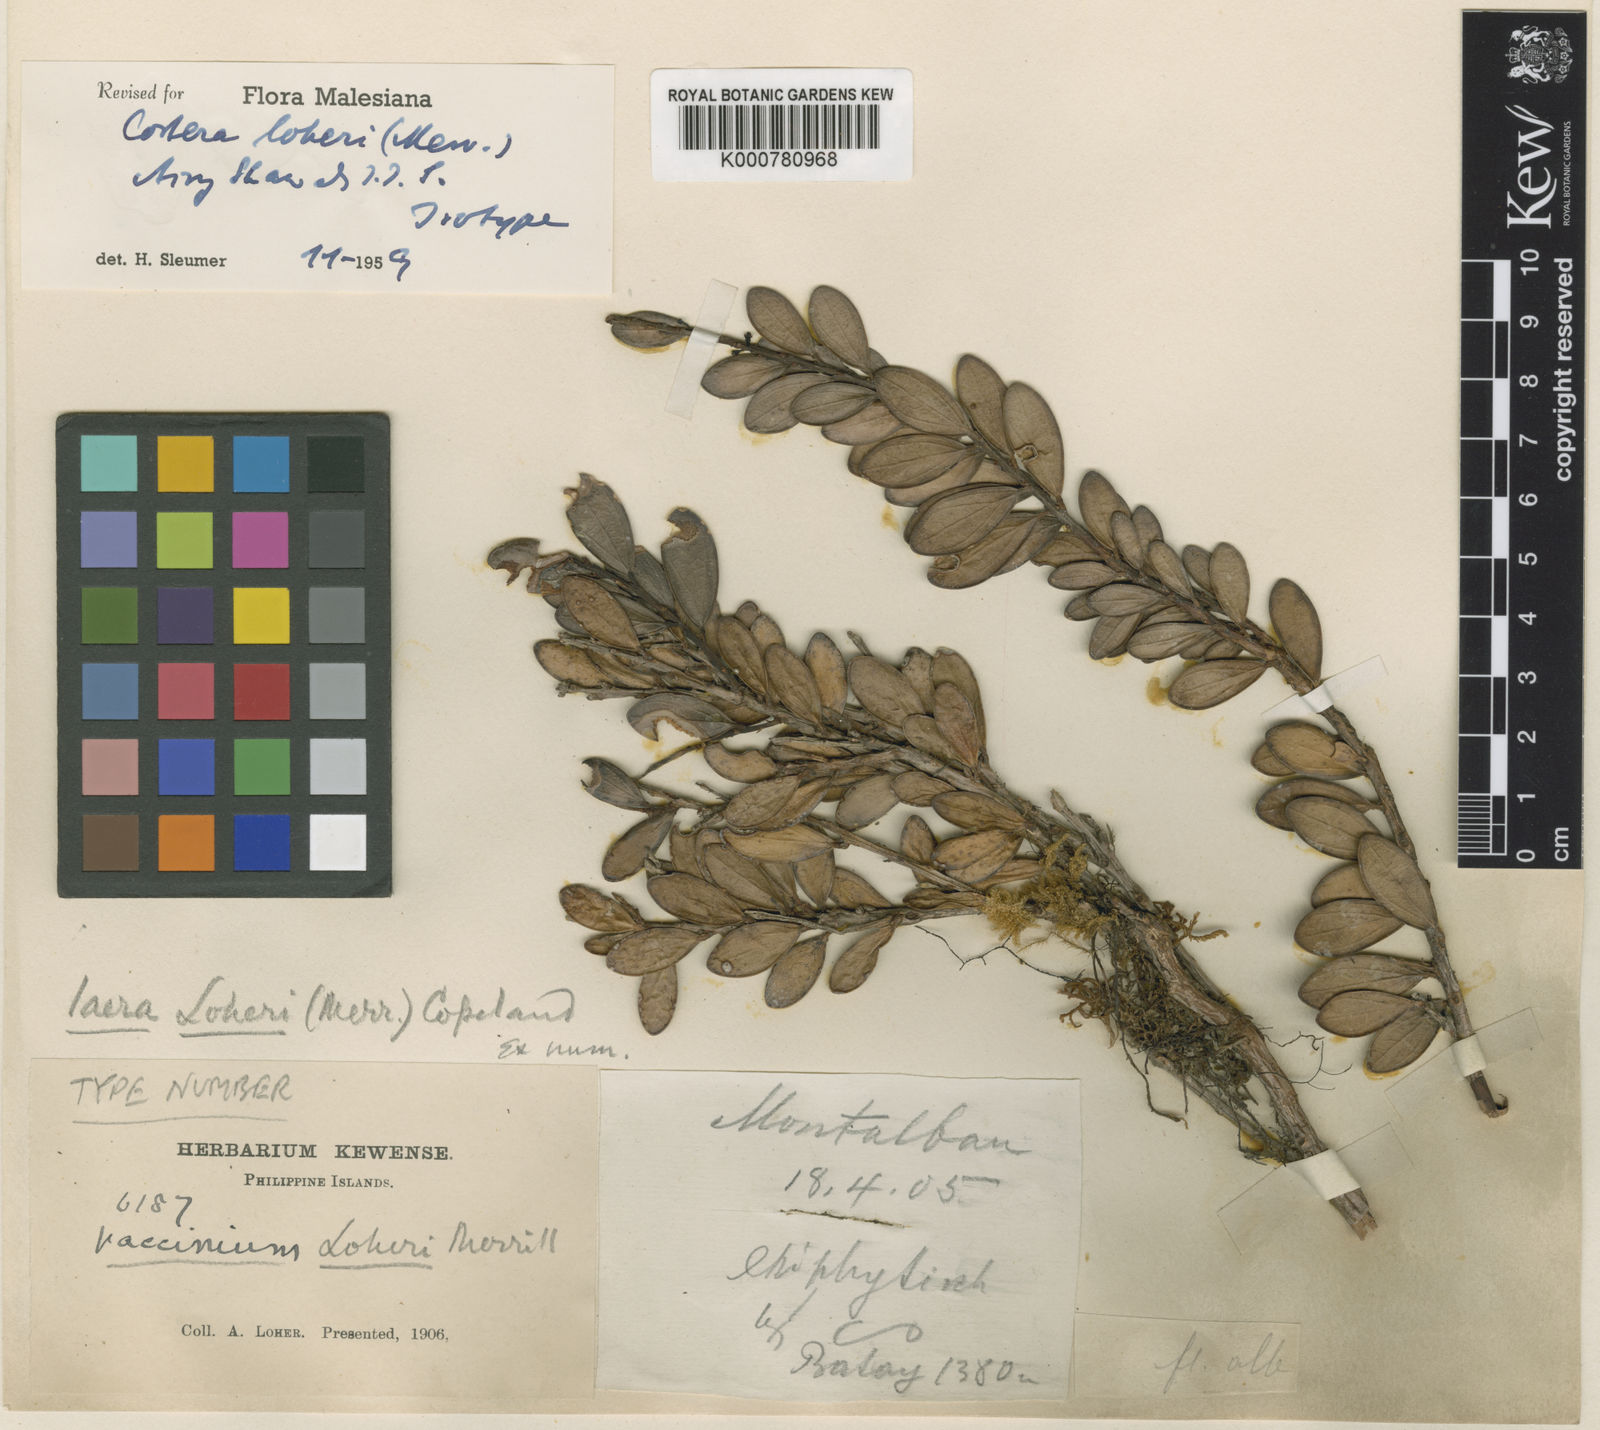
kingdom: Plantae
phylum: Tracheophyta
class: Magnoliopsida
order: Ericales
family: Ericaceae
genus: Costera
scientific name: Costera loheri
